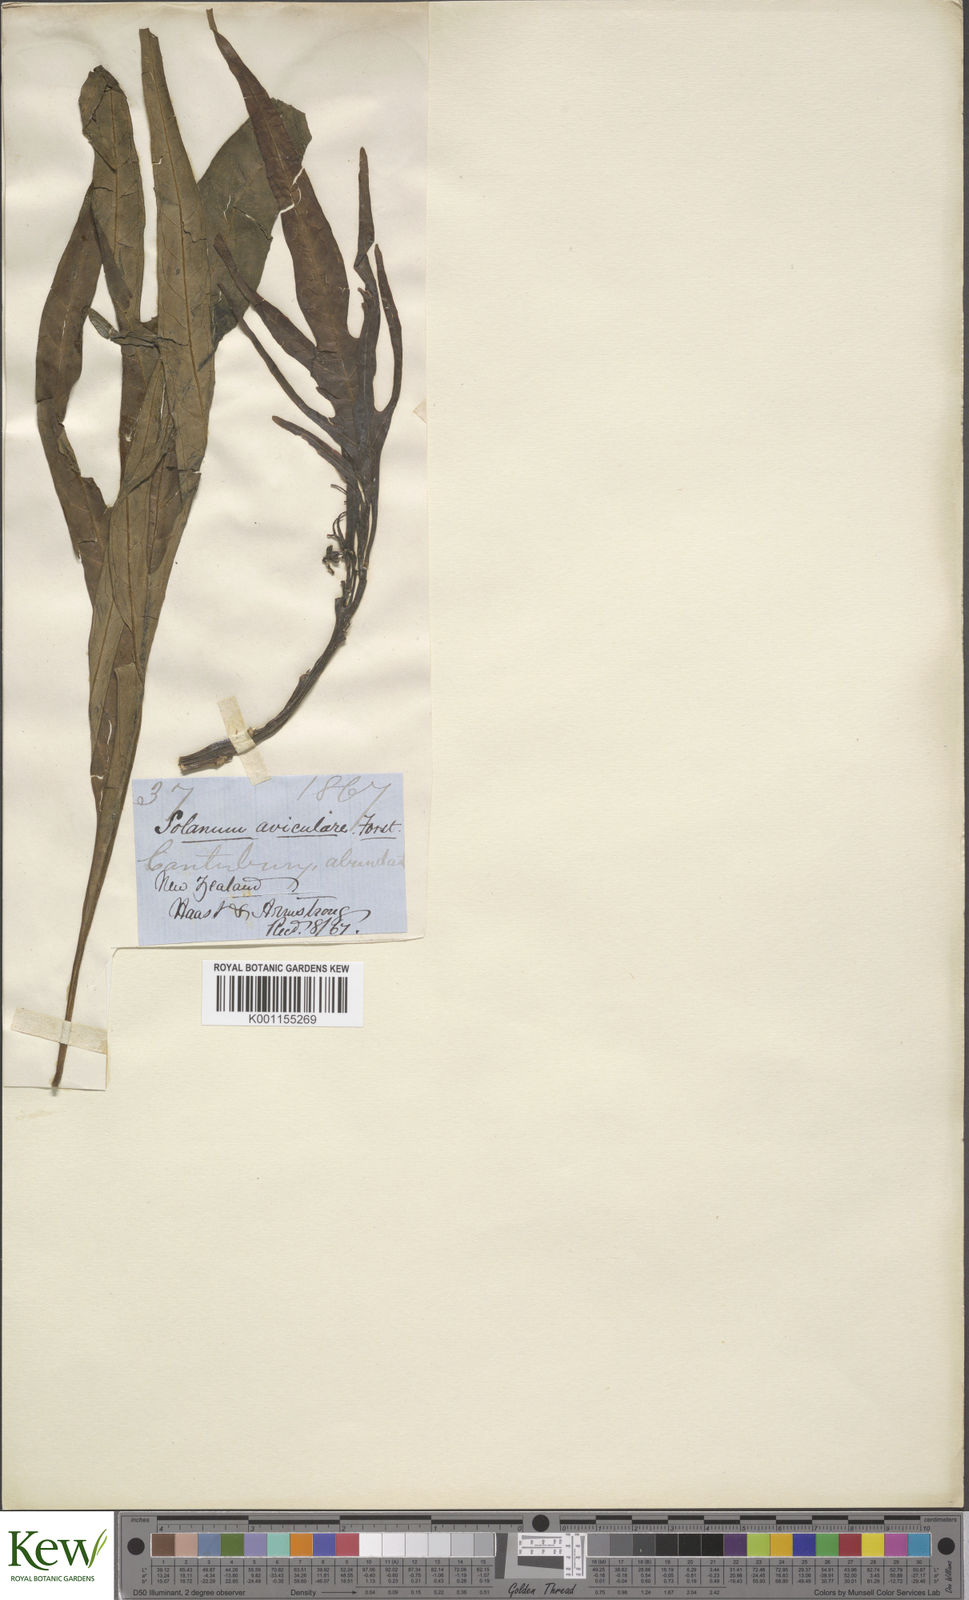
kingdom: Plantae
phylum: Tracheophyta
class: Magnoliopsida
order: Solanales
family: Solanaceae
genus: Solanum
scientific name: Solanum aviculare
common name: New zealand nightshade
